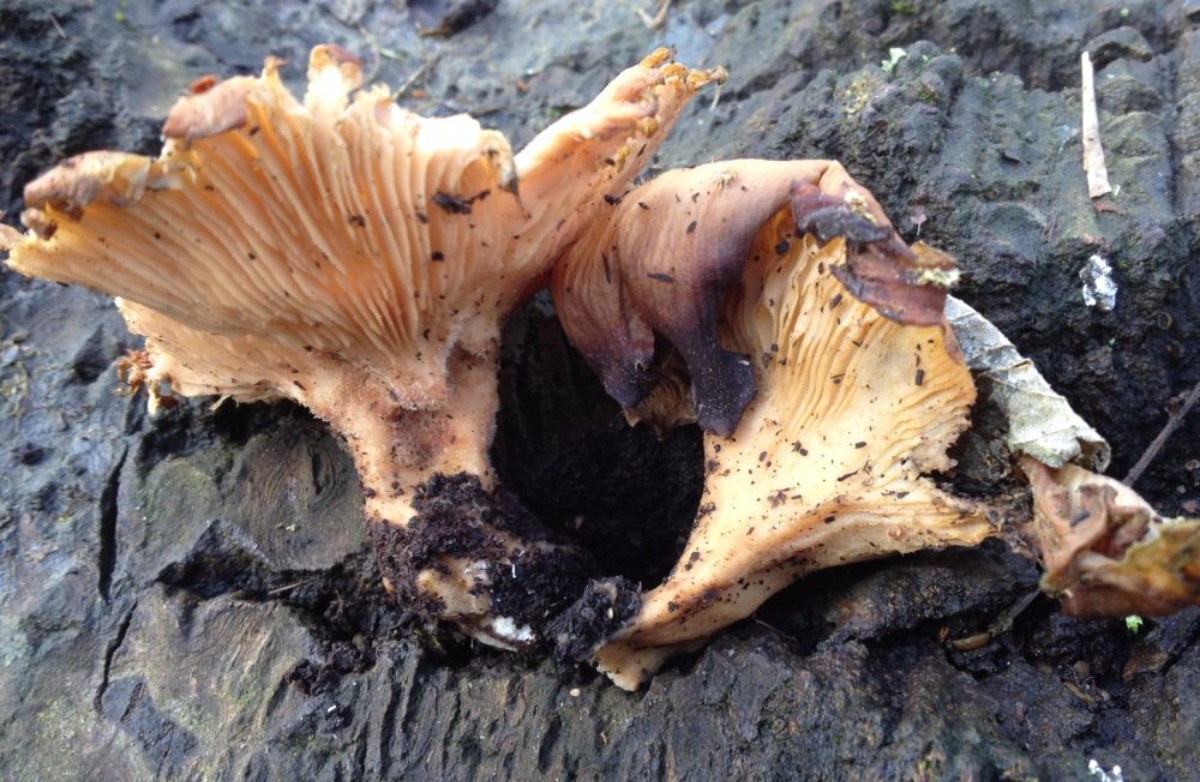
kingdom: Fungi
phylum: Basidiomycota
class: Agaricomycetes
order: Polyporales
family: Panaceae
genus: Panus
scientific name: Panus conchatus
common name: filtstokket læderhat
